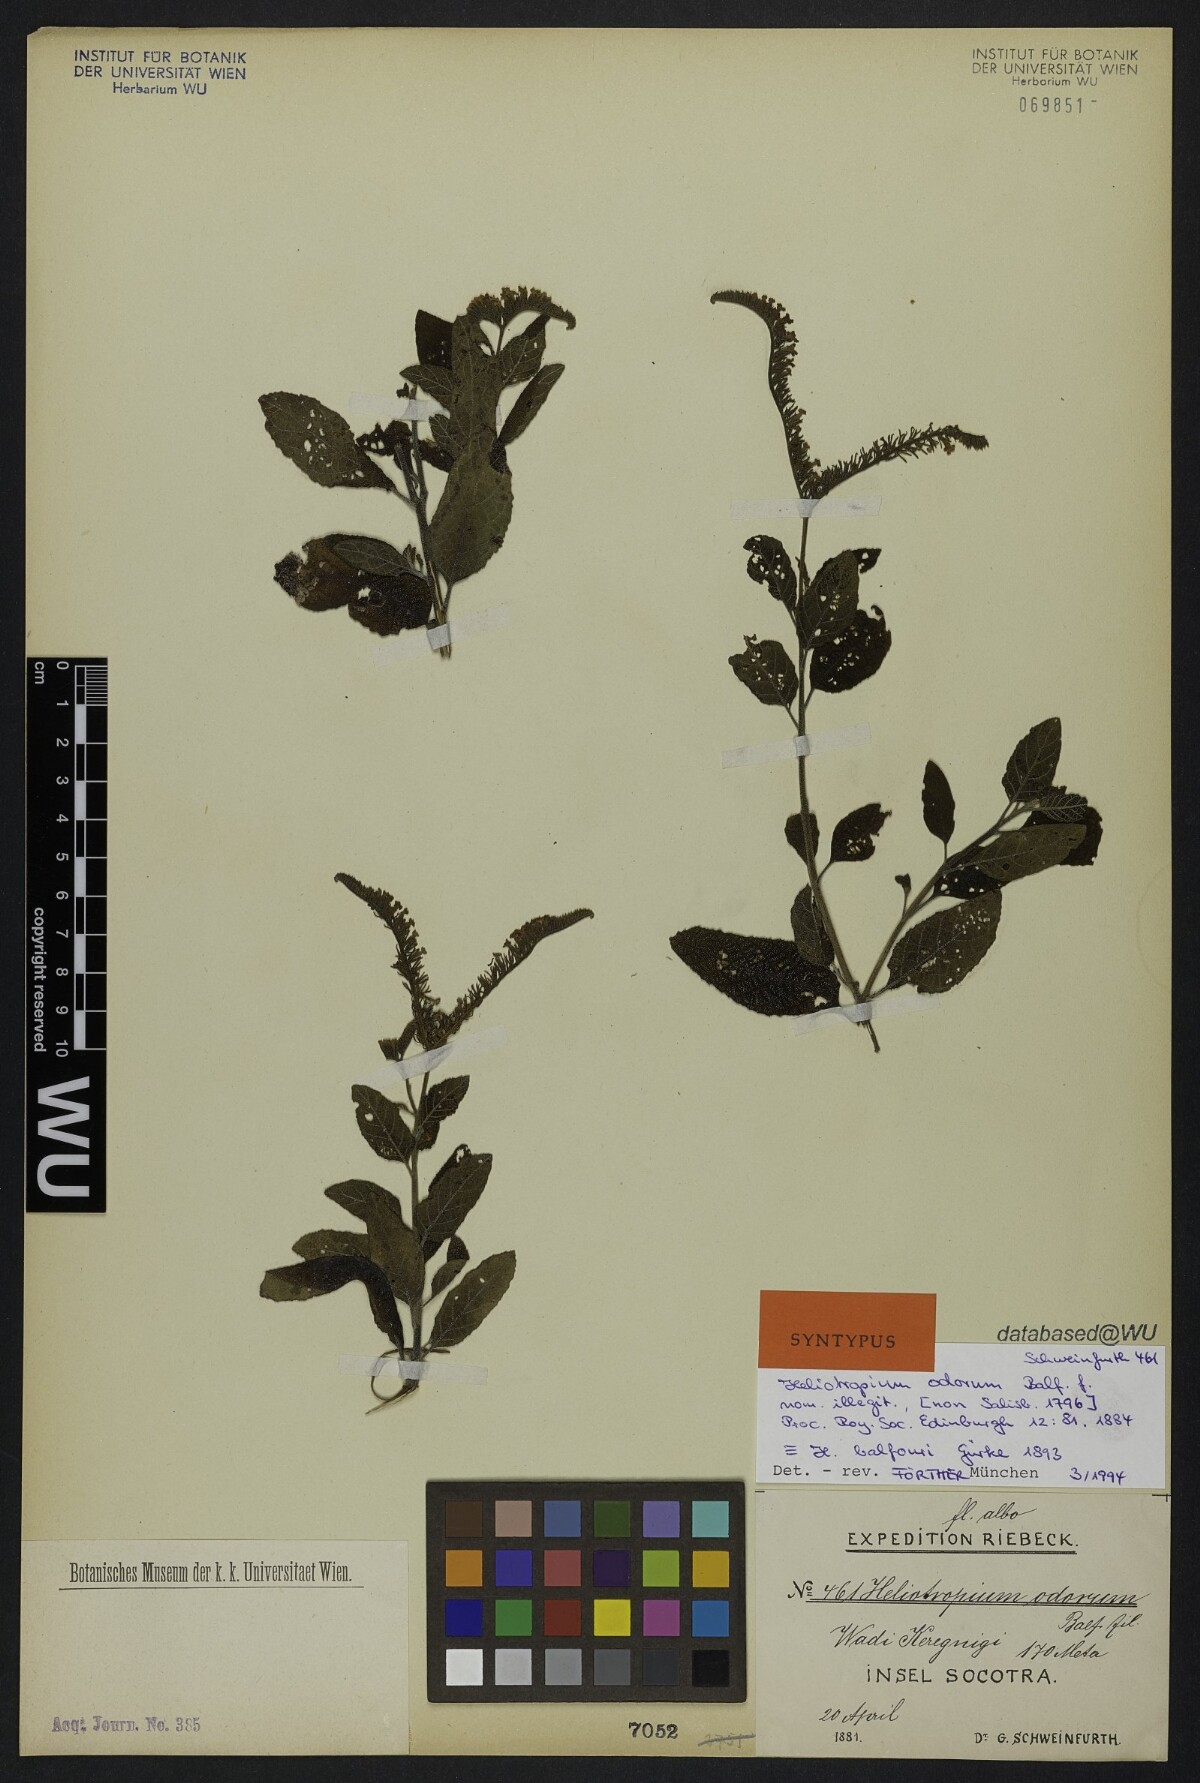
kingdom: Plantae
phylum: Tracheophyta
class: Magnoliopsida
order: Boraginales
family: Heliotropiaceae
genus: Heliotropium
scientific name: Heliotropium balfourii
